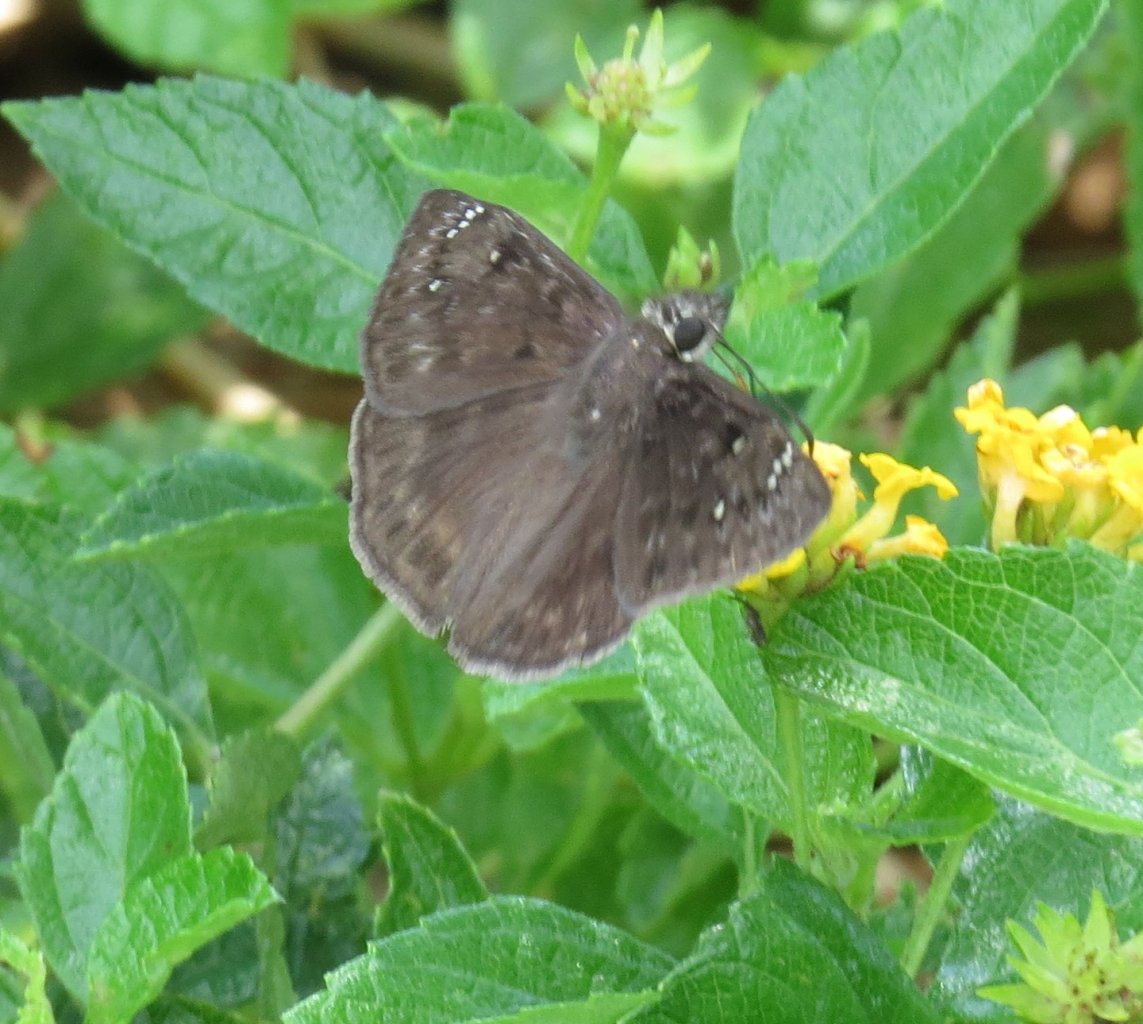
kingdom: Animalia
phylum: Arthropoda
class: Insecta
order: Lepidoptera
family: Hesperiidae
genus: Gesta
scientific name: Gesta
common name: Horace's Duskywing
